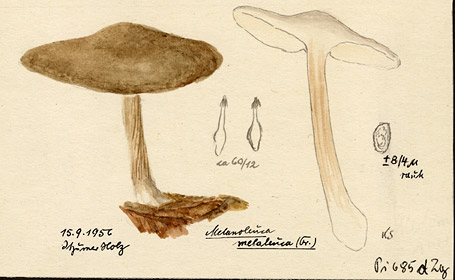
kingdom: Fungi
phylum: Basidiomycota
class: Agaricomycetes
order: Agaricales
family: Tricholomataceae
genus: Melanoleuca
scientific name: Melanoleuca melaleuca
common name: Bald cavalier
